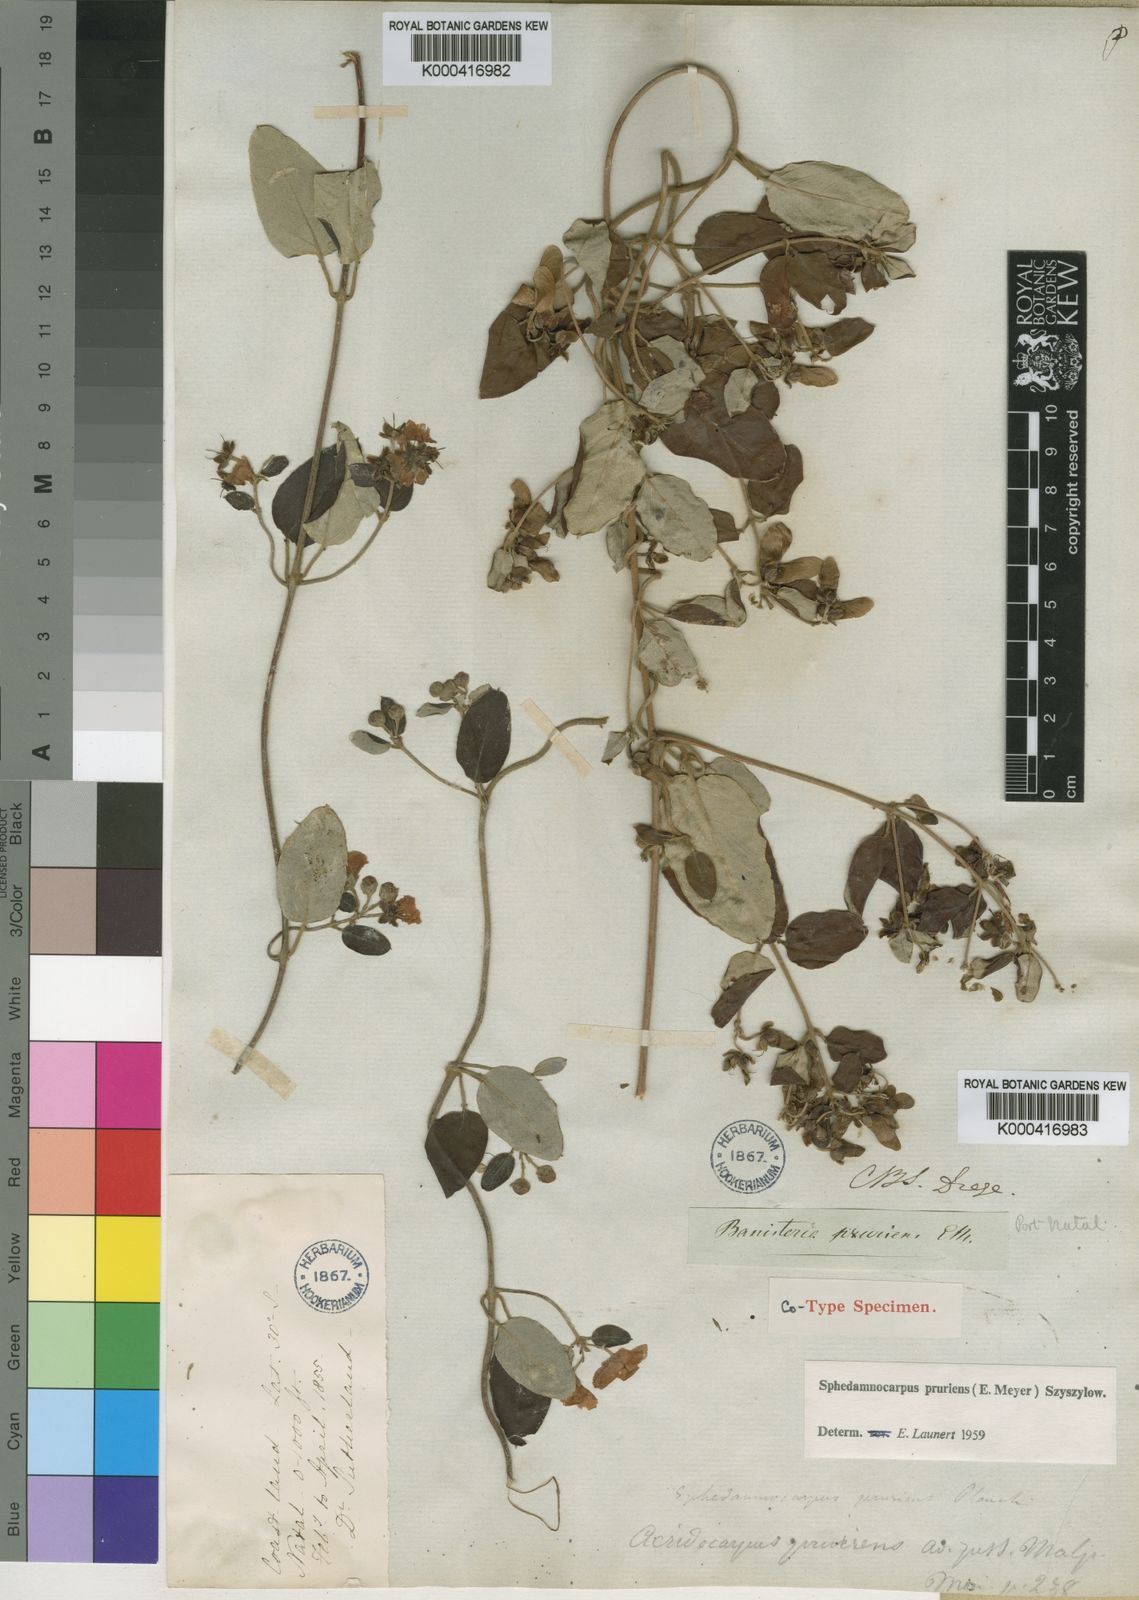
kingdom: Plantae
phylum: Tracheophyta
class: Magnoliopsida
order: Malpighiales
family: Malpighiaceae
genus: Sphedamnocarpus
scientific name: Sphedamnocarpus pruriens
